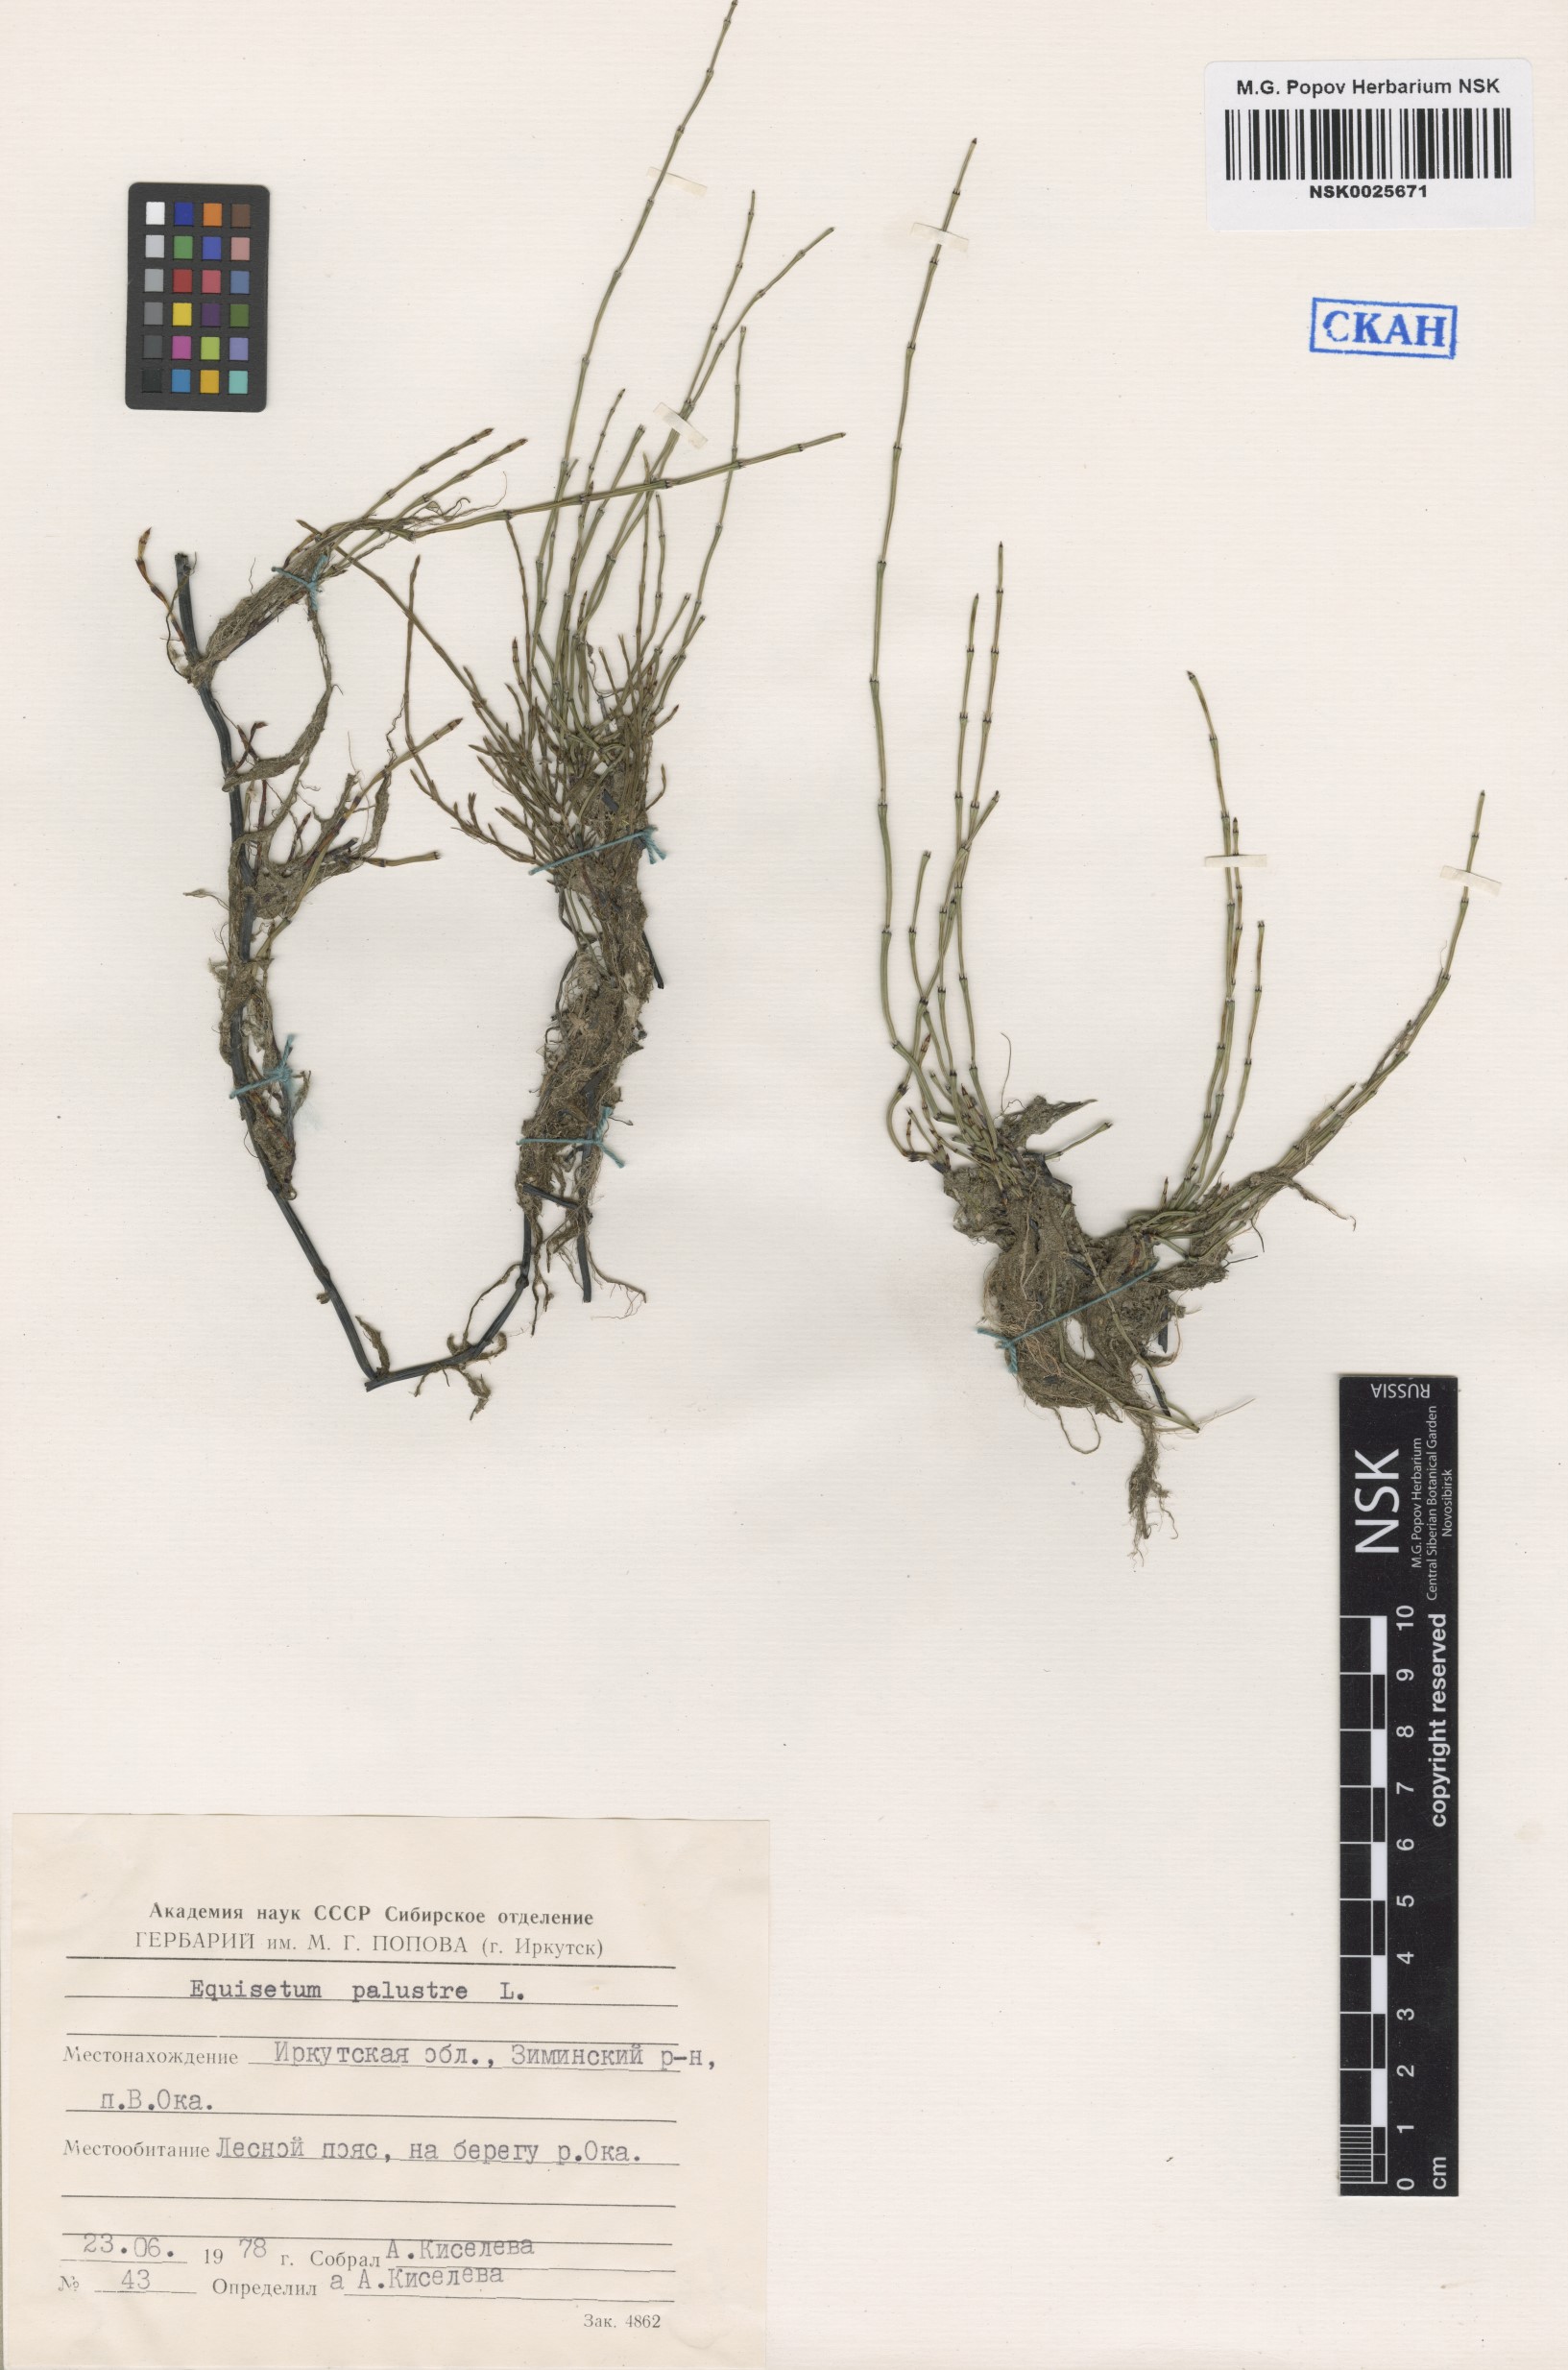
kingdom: Plantae
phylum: Tracheophyta
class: Polypodiopsida
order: Equisetales
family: Equisetaceae
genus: Equisetum
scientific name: Equisetum palustre
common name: Marsh horsetail
